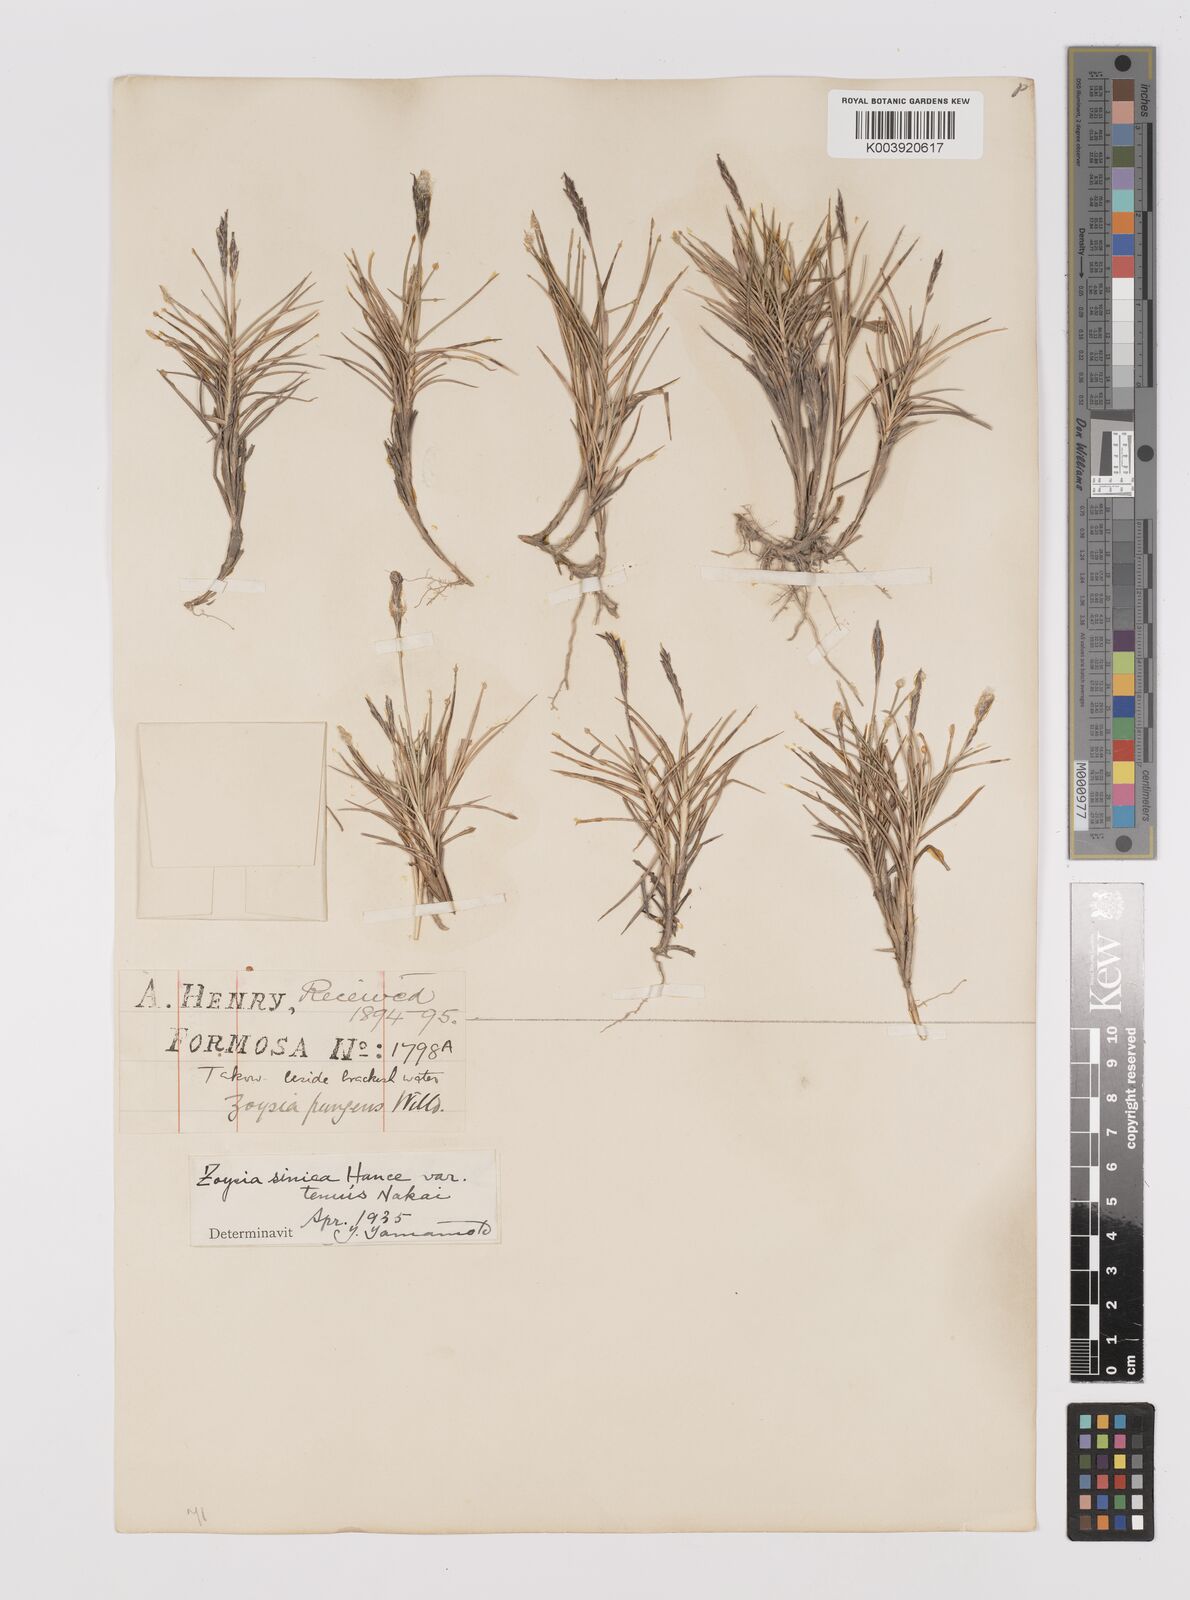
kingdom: Plantae
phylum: Tracheophyta
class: Liliopsida
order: Poales
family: Poaceae
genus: Zoysia
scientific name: Zoysia sinica
